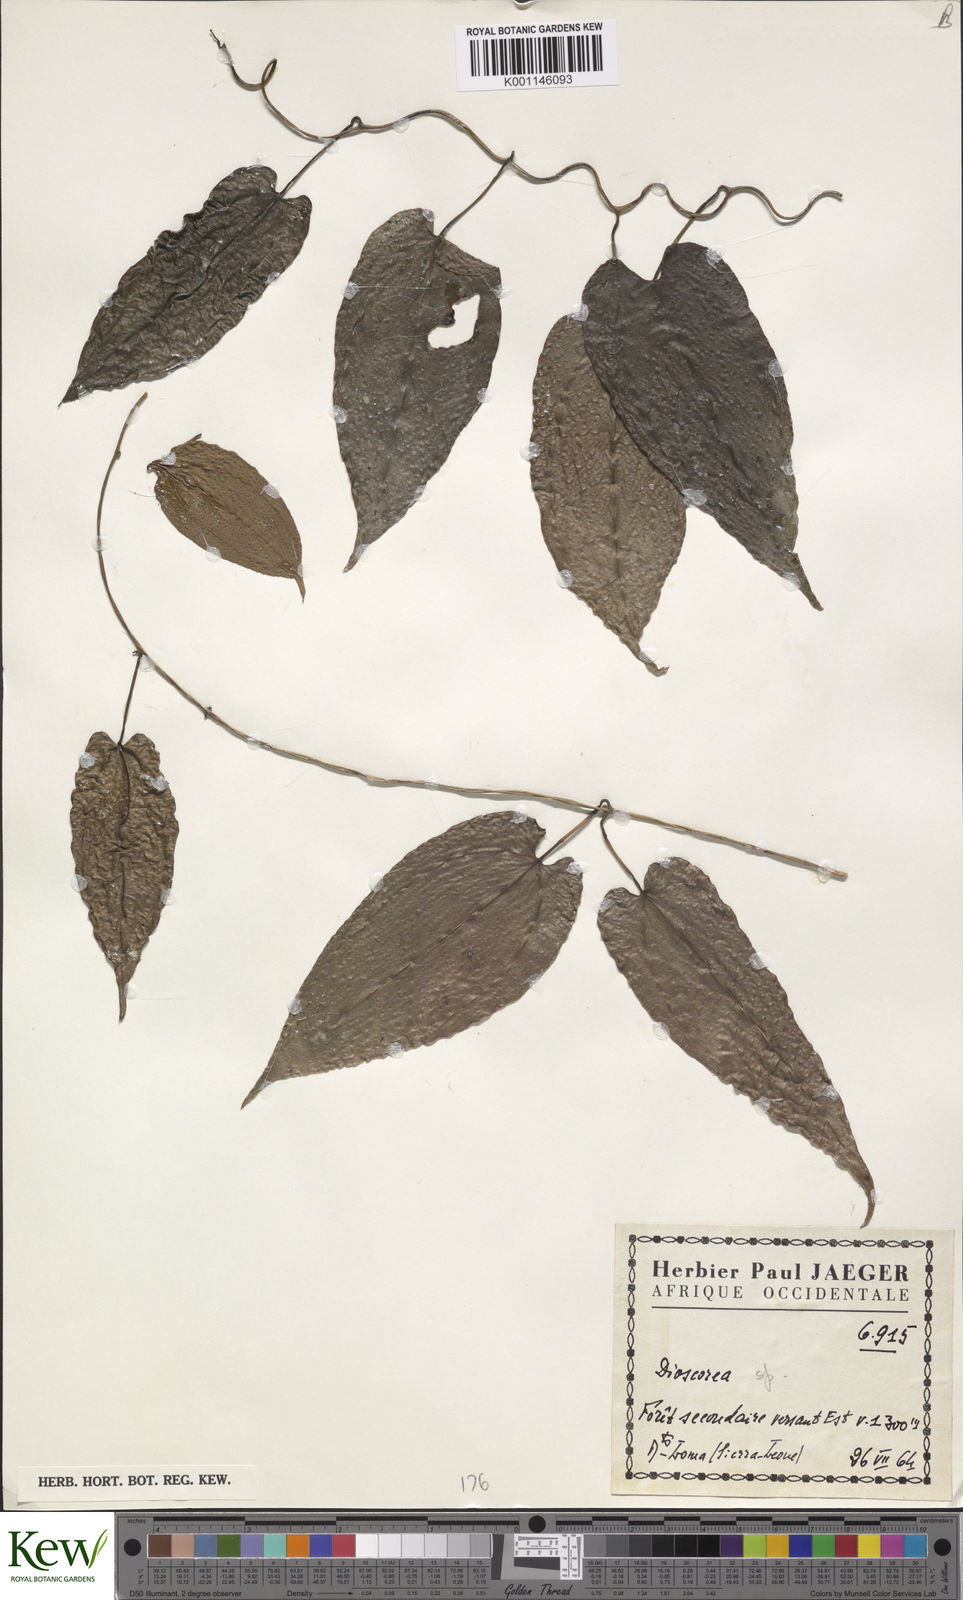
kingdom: Plantae
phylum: Tracheophyta
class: Liliopsida
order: Dioscoreales
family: Dioscoreaceae
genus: Dioscorea
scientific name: Dioscorea
